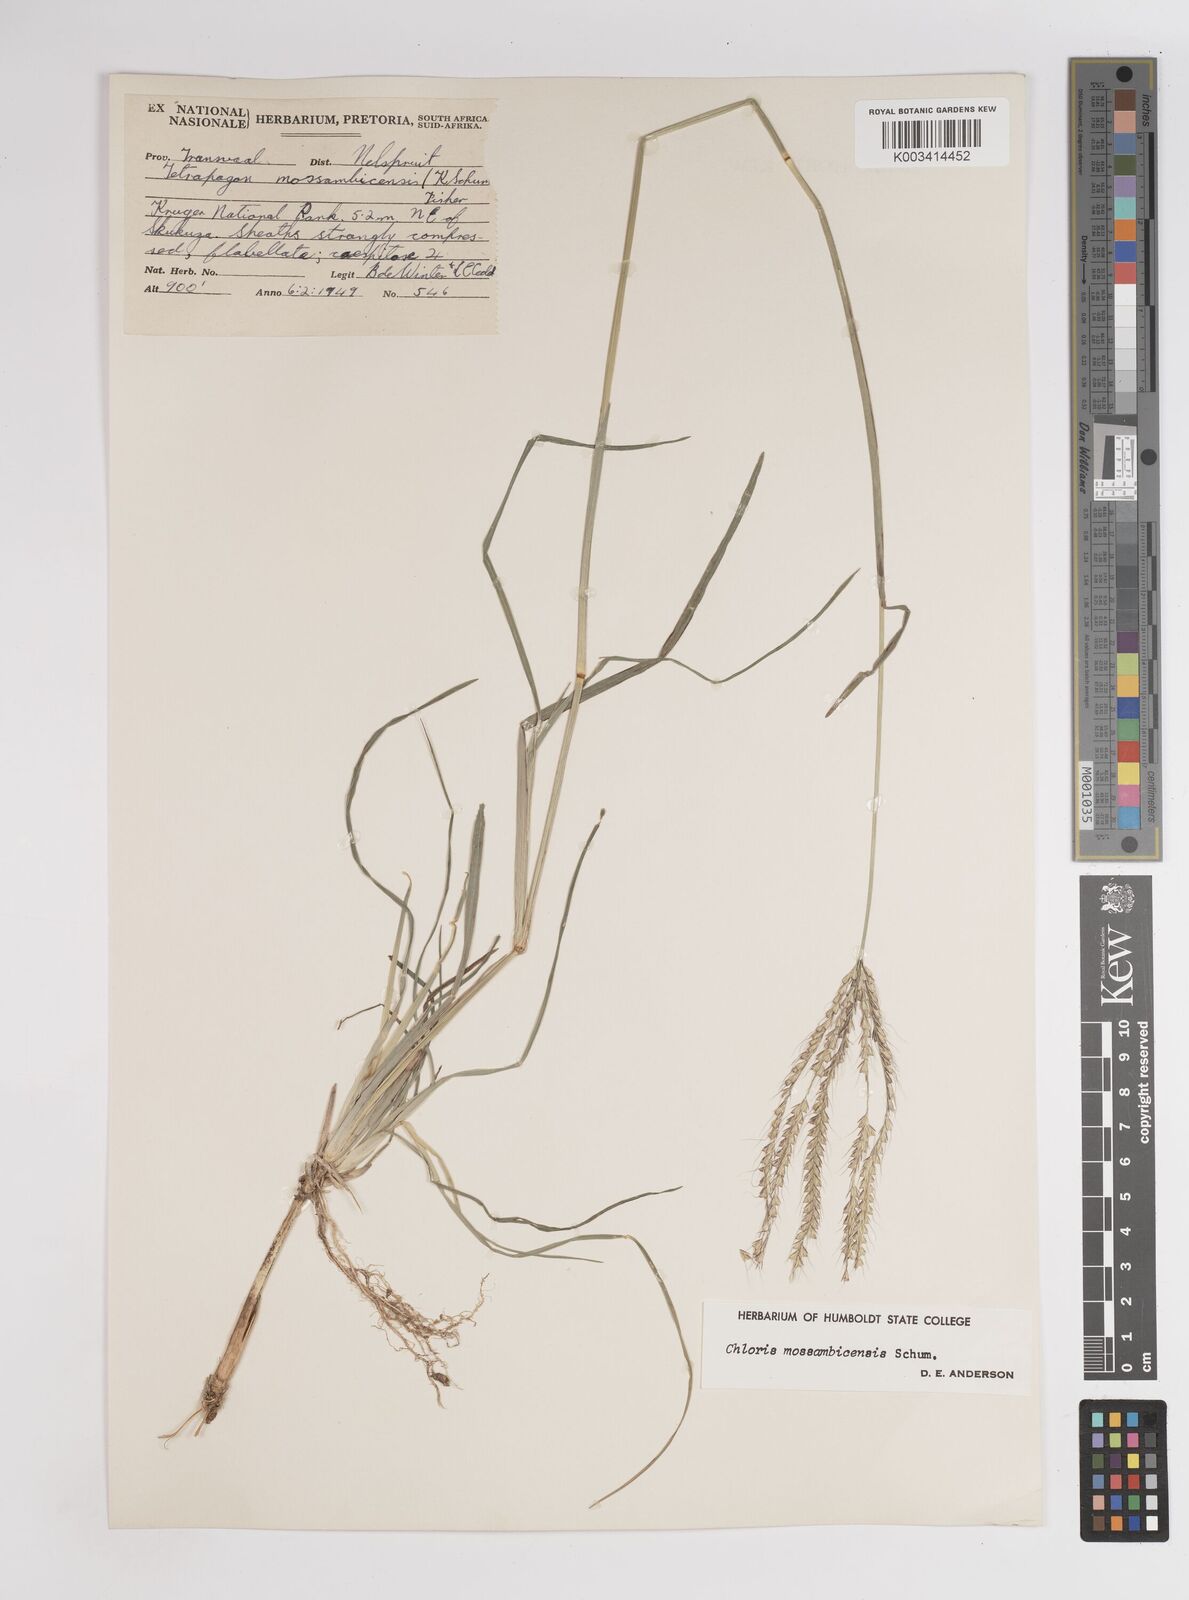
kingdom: Plantae
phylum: Tracheophyta
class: Liliopsida
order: Poales
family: Poaceae
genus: Chloris
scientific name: Chloris mossambicensis
